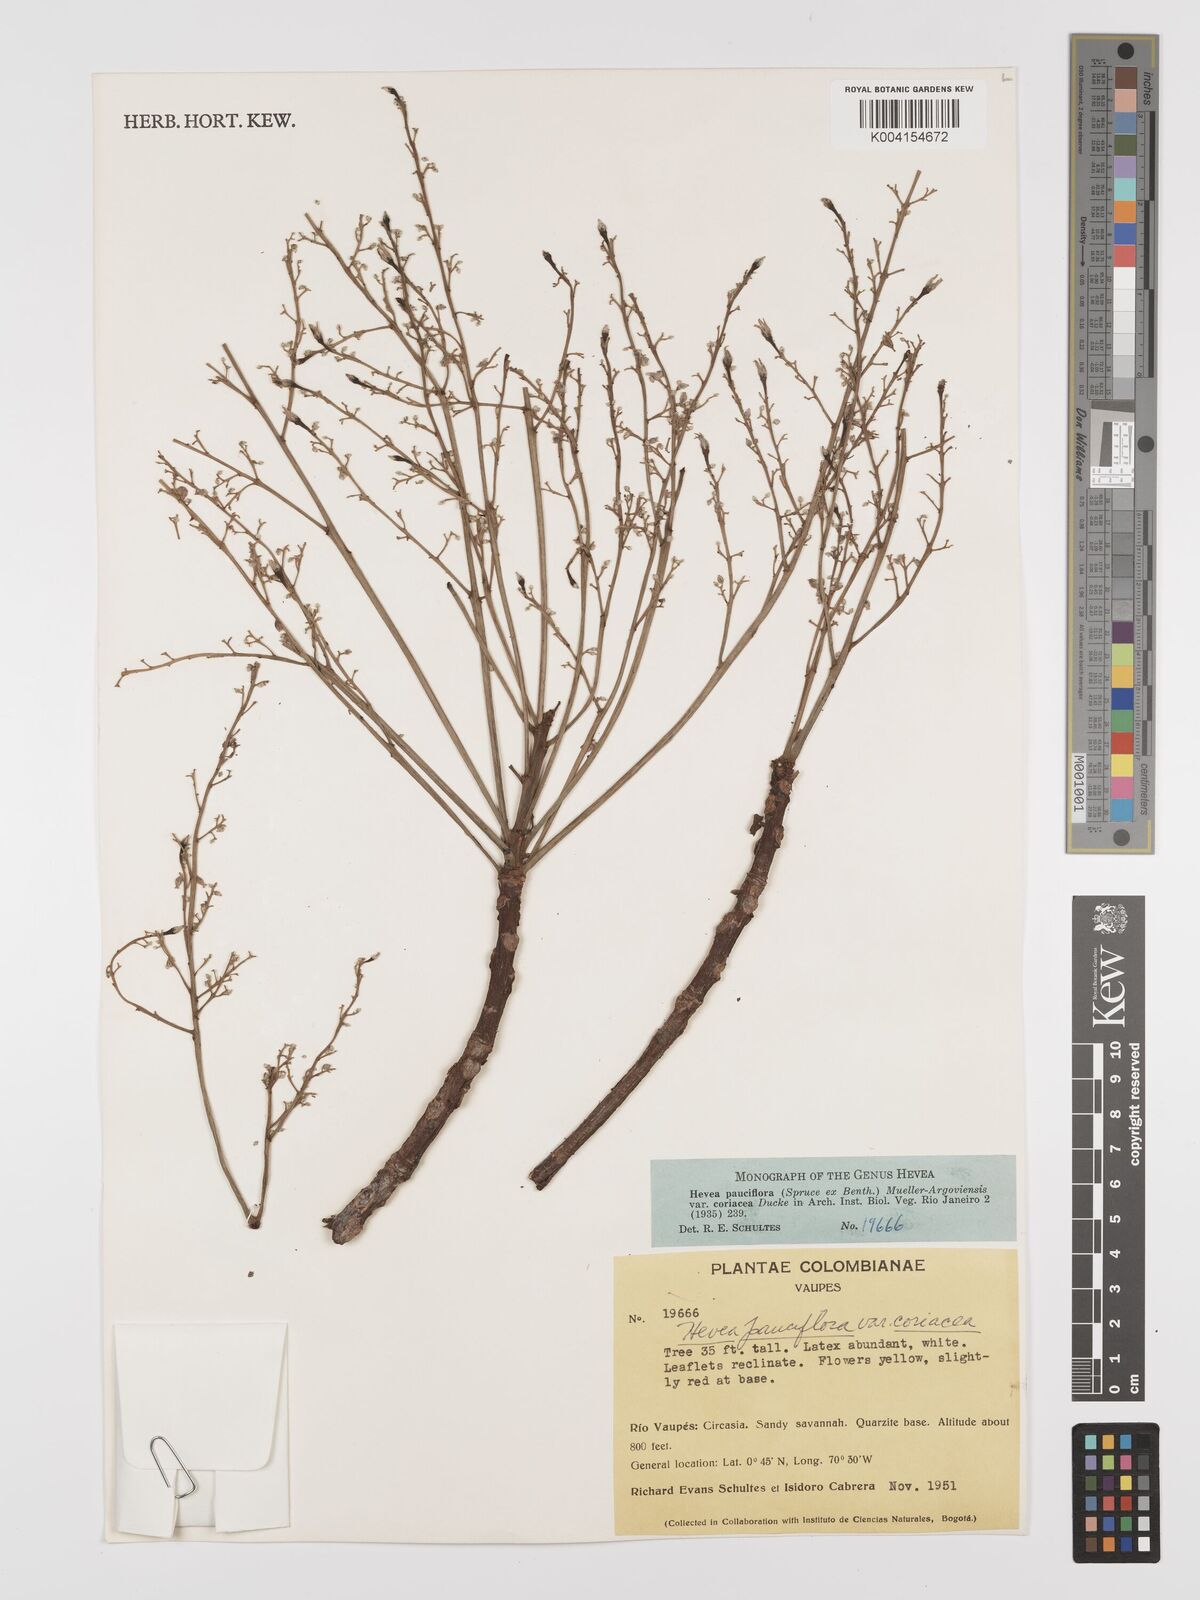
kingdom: Plantae
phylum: Tracheophyta
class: Magnoliopsida
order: Malpighiales
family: Euphorbiaceae
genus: Hevea
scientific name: Hevea pauciflora
